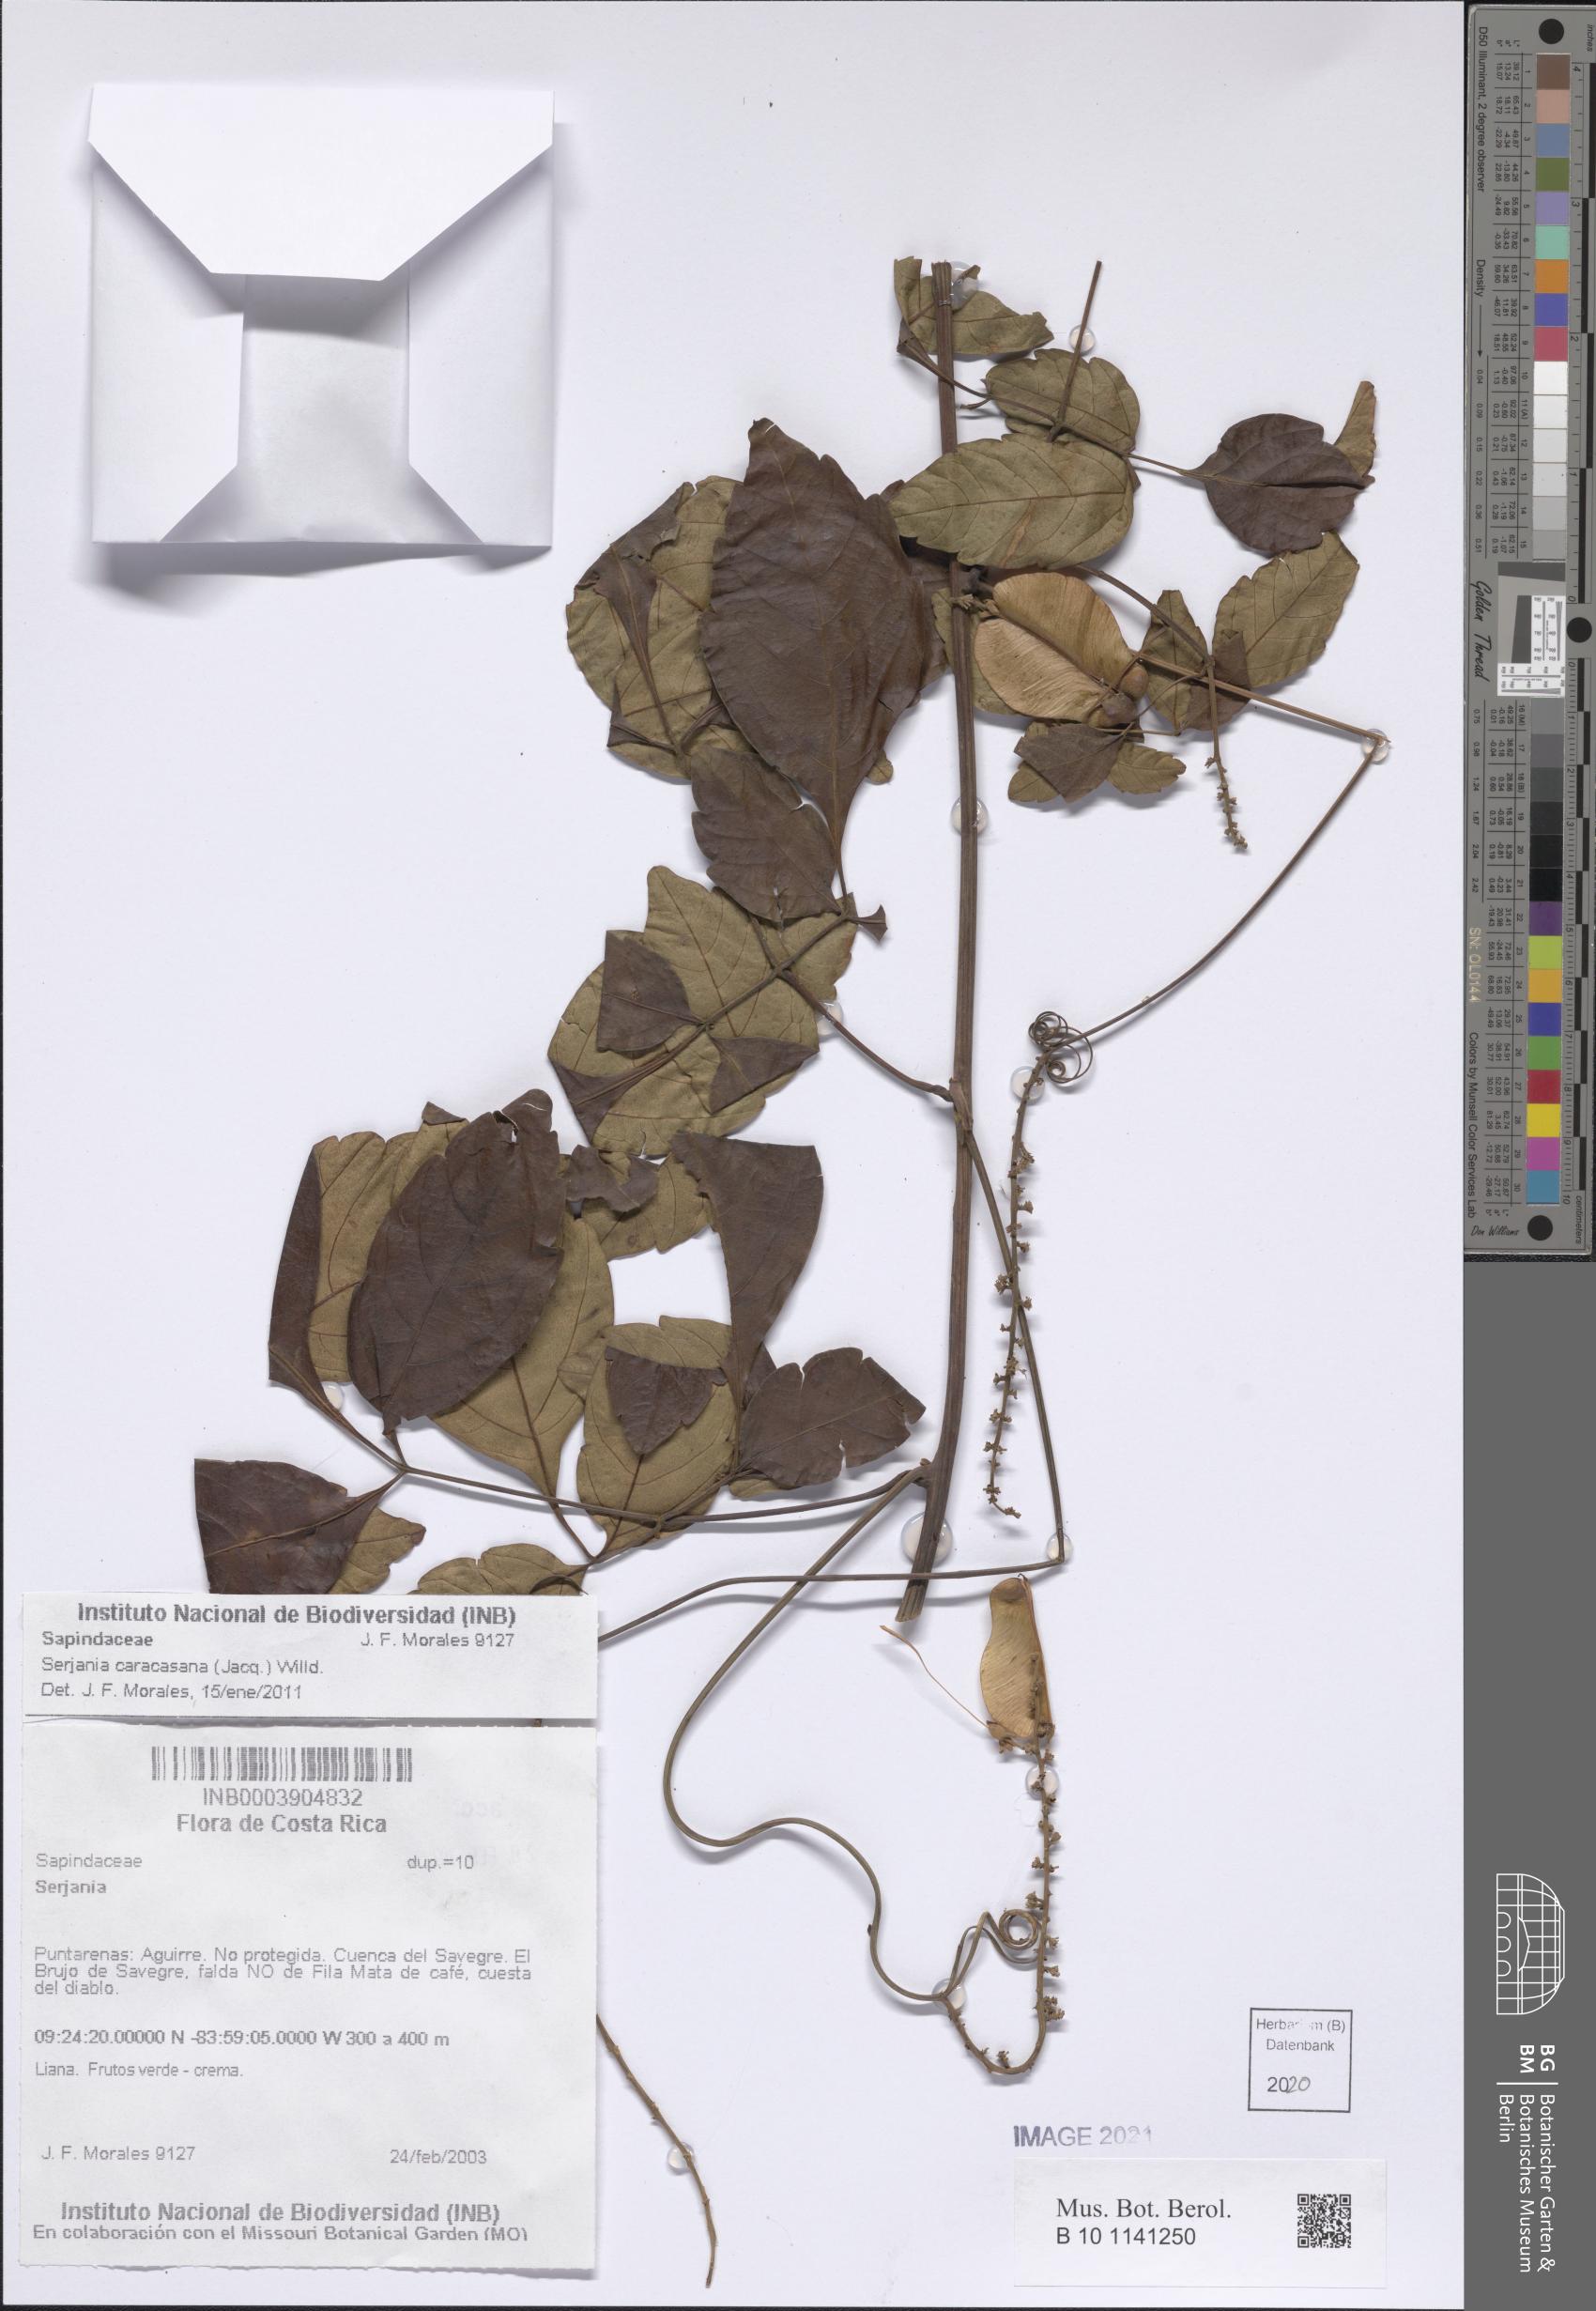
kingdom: Plantae
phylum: Tracheophyta
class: Magnoliopsida
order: Sapindales
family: Sapindaceae
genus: Serjania
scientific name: Serjania caracasana
